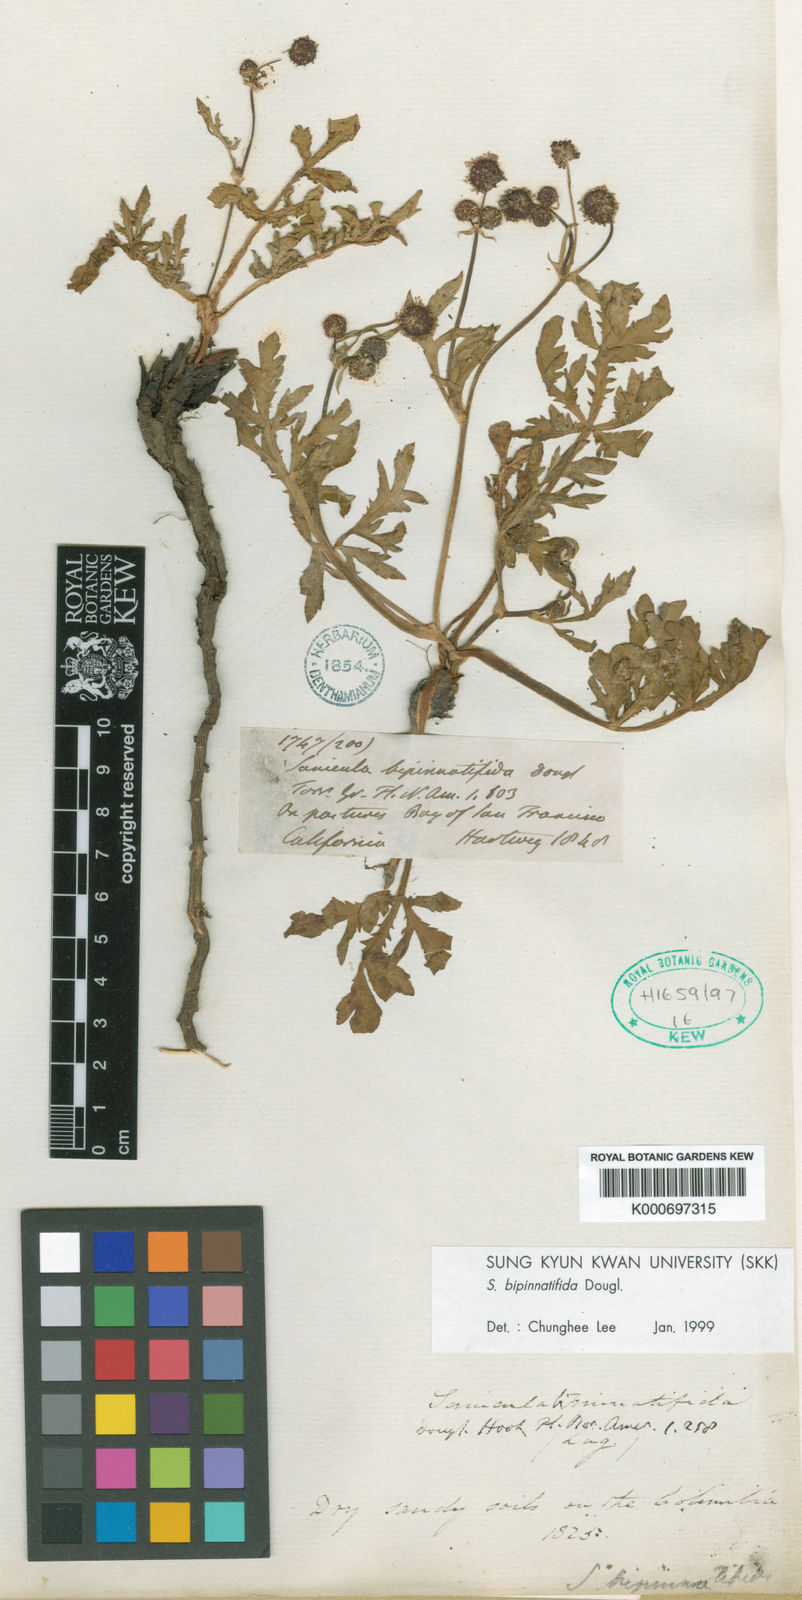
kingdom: Plantae
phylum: Tracheophyta
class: Magnoliopsida
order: Apiales
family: Apiaceae
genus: Sanicula
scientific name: Sanicula
